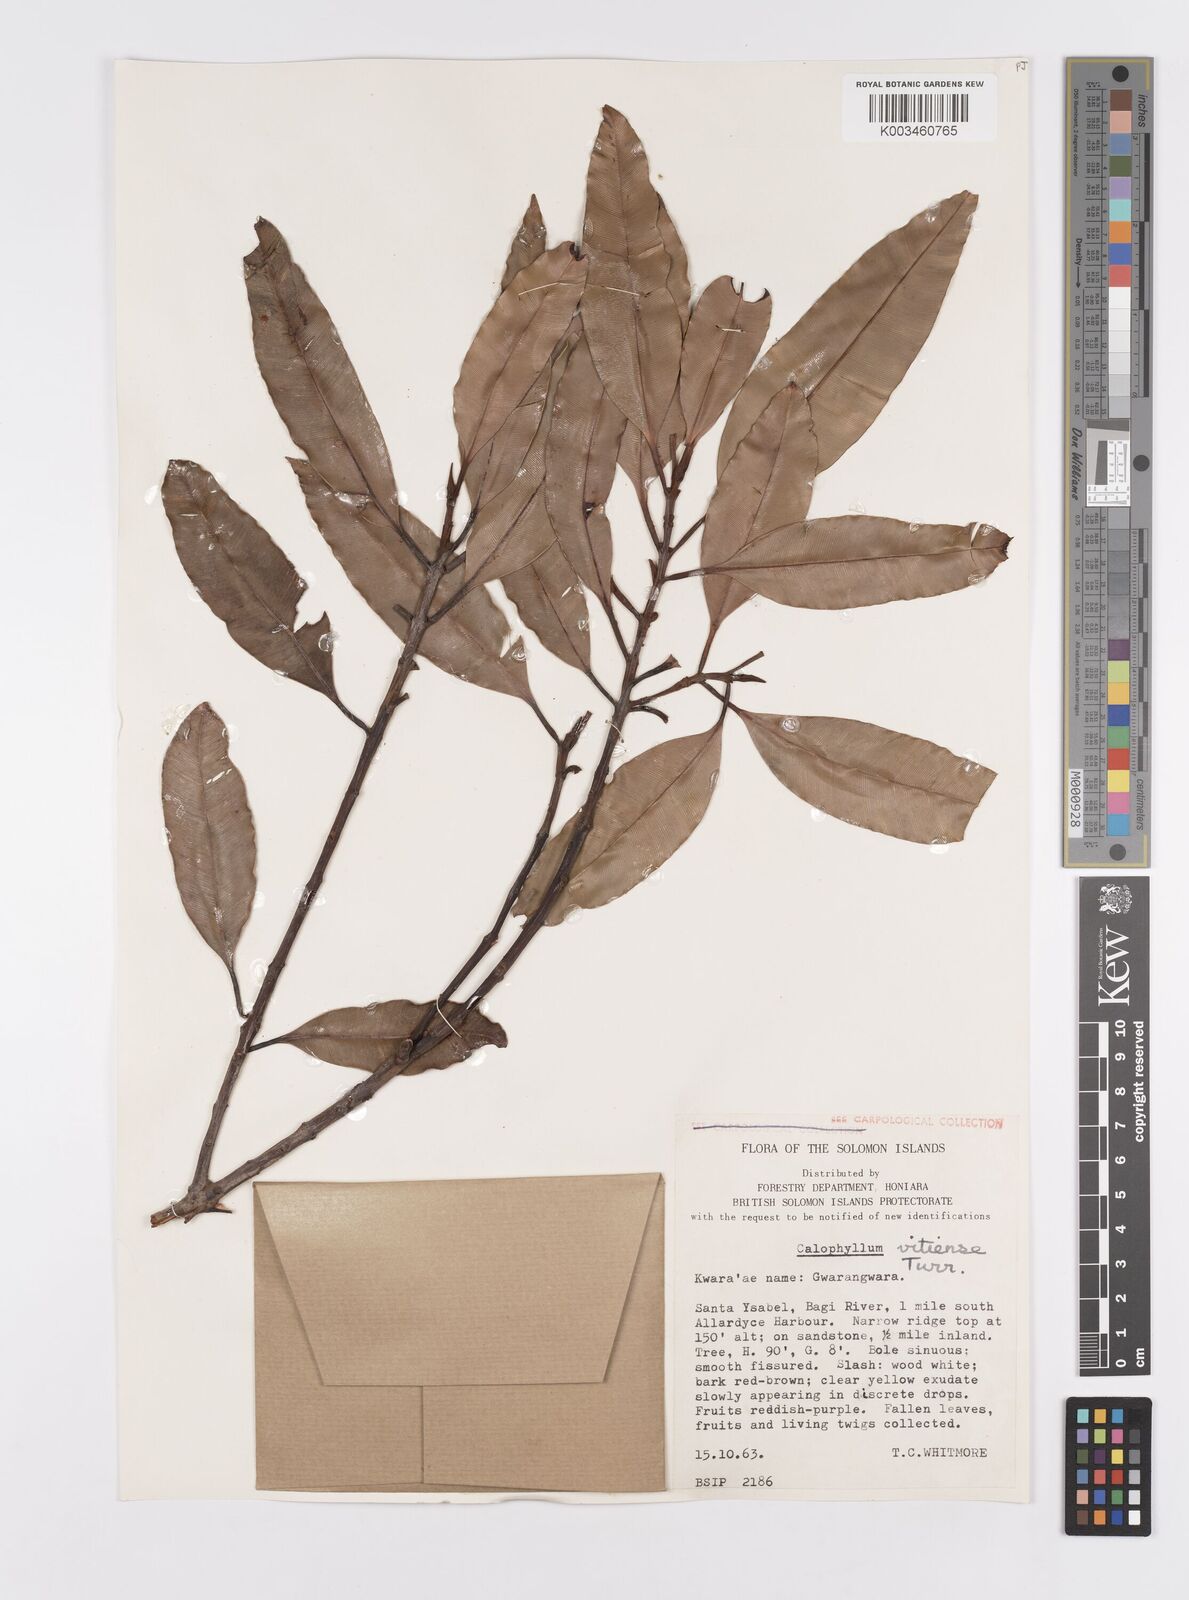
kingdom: Plantae
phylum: Tracheophyta
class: Magnoliopsida
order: Malpighiales
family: Calophyllaceae
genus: Calophyllum
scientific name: Calophyllum vitiense
